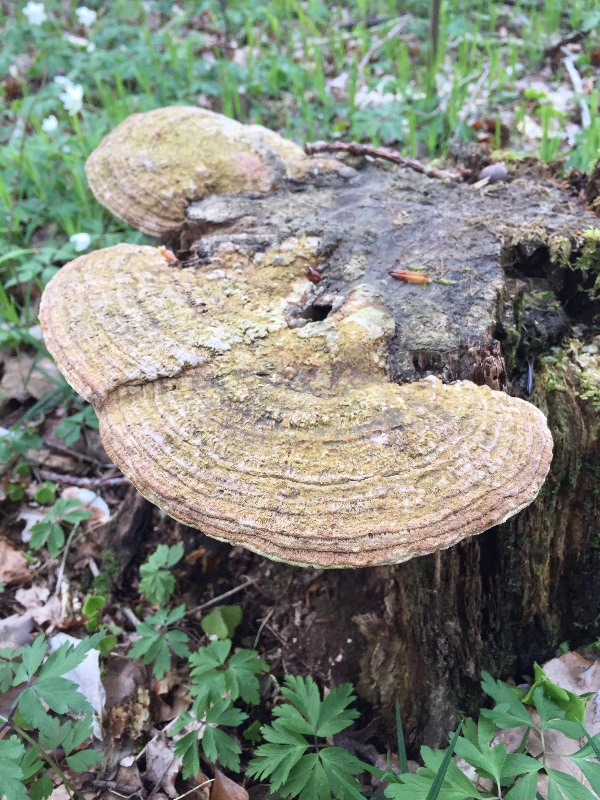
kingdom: Fungi
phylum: Basidiomycota
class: Agaricomycetes
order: Polyporales
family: Fomitopsidaceae
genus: Daedalea
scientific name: Daedalea quercina
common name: ege-labyrintsvamp
